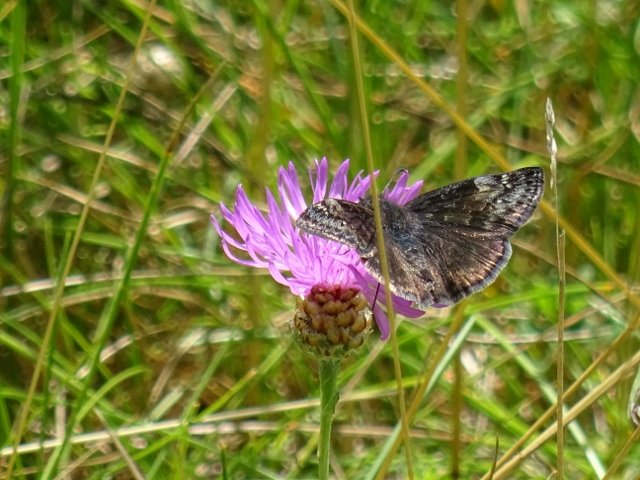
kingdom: Animalia
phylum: Arthropoda
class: Insecta
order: Lepidoptera
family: Hesperiidae
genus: Gesta
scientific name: Gesta
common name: Columbine Duskywing
